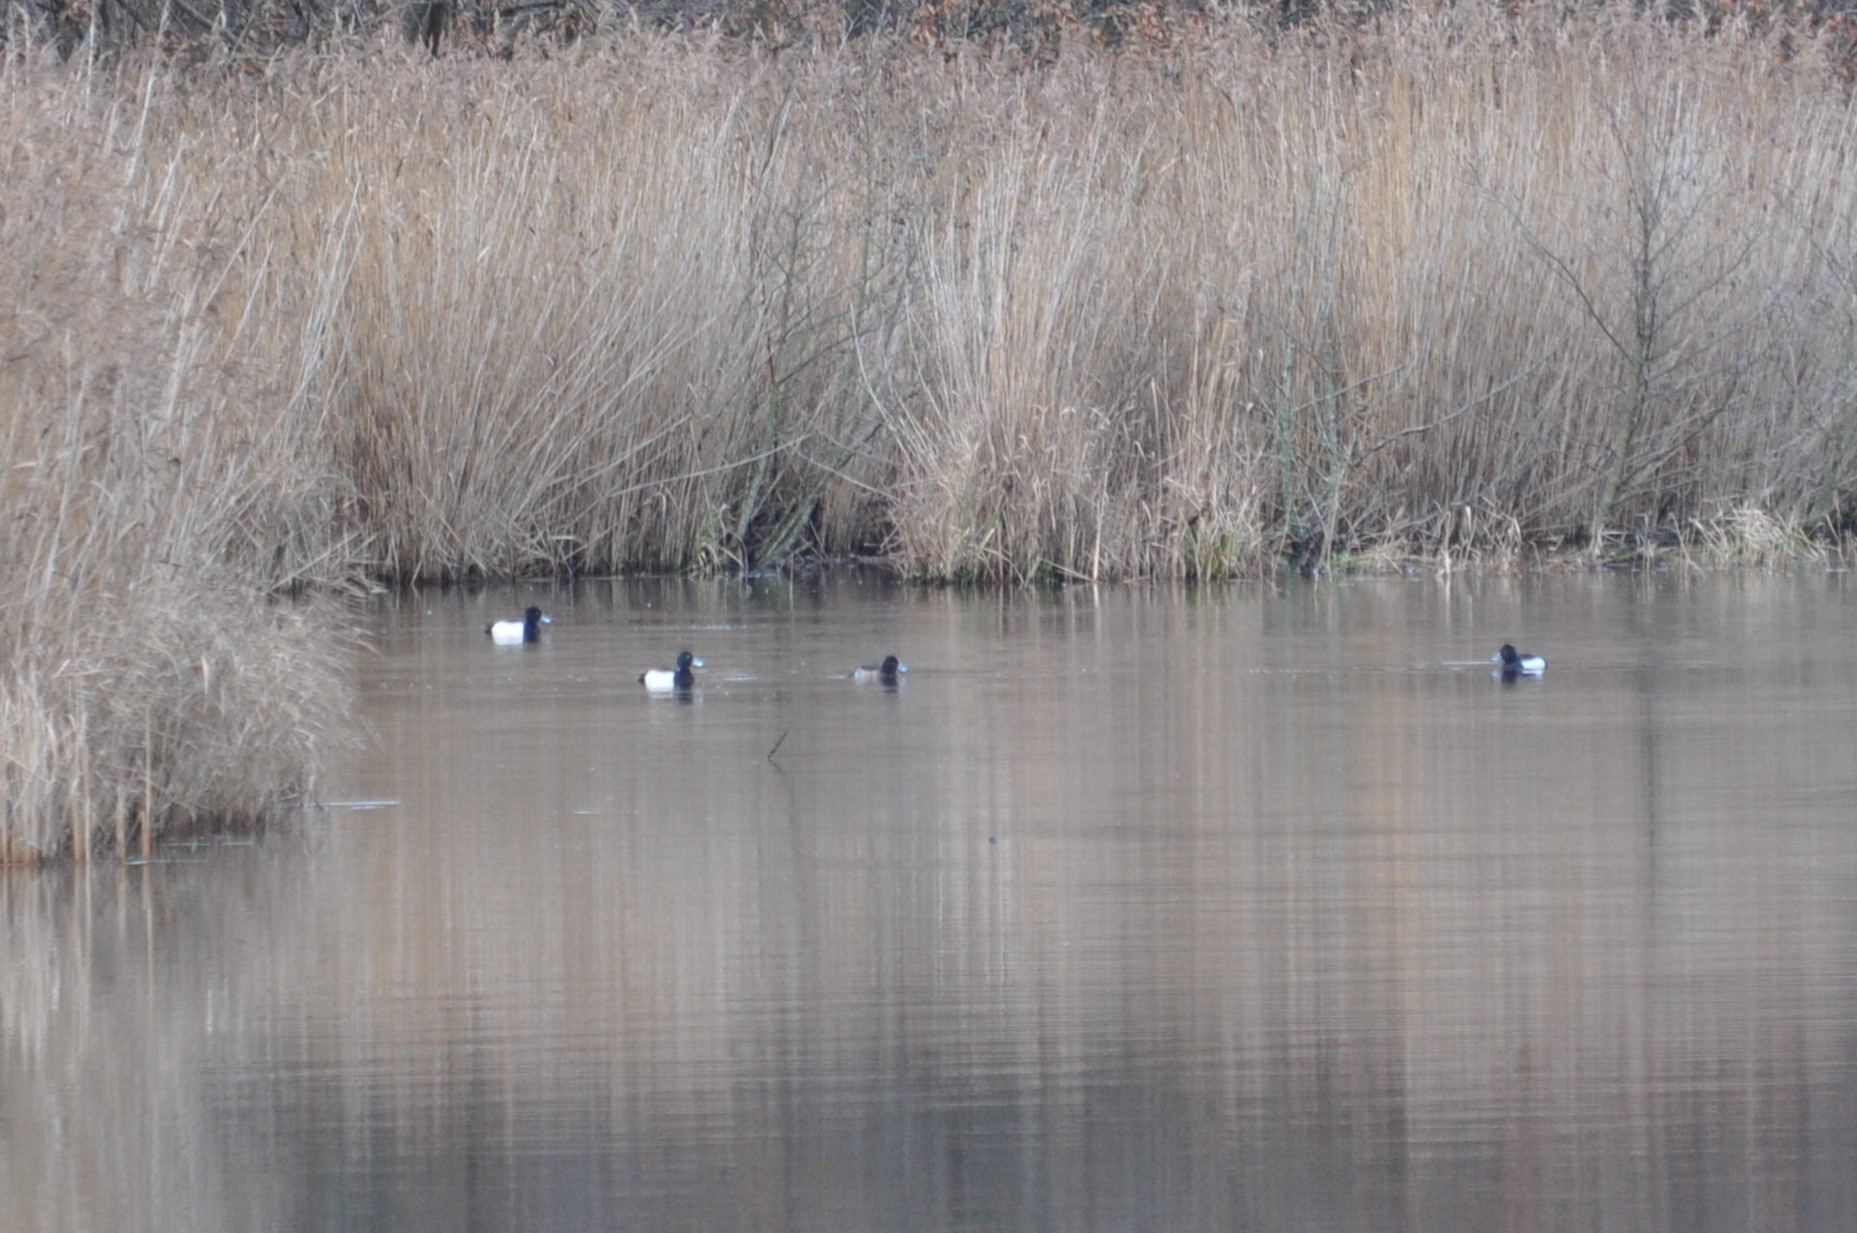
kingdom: Animalia
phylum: Chordata
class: Aves
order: Anseriformes
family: Anatidae
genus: Aythya
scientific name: Aythya fuligula
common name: Troldand
